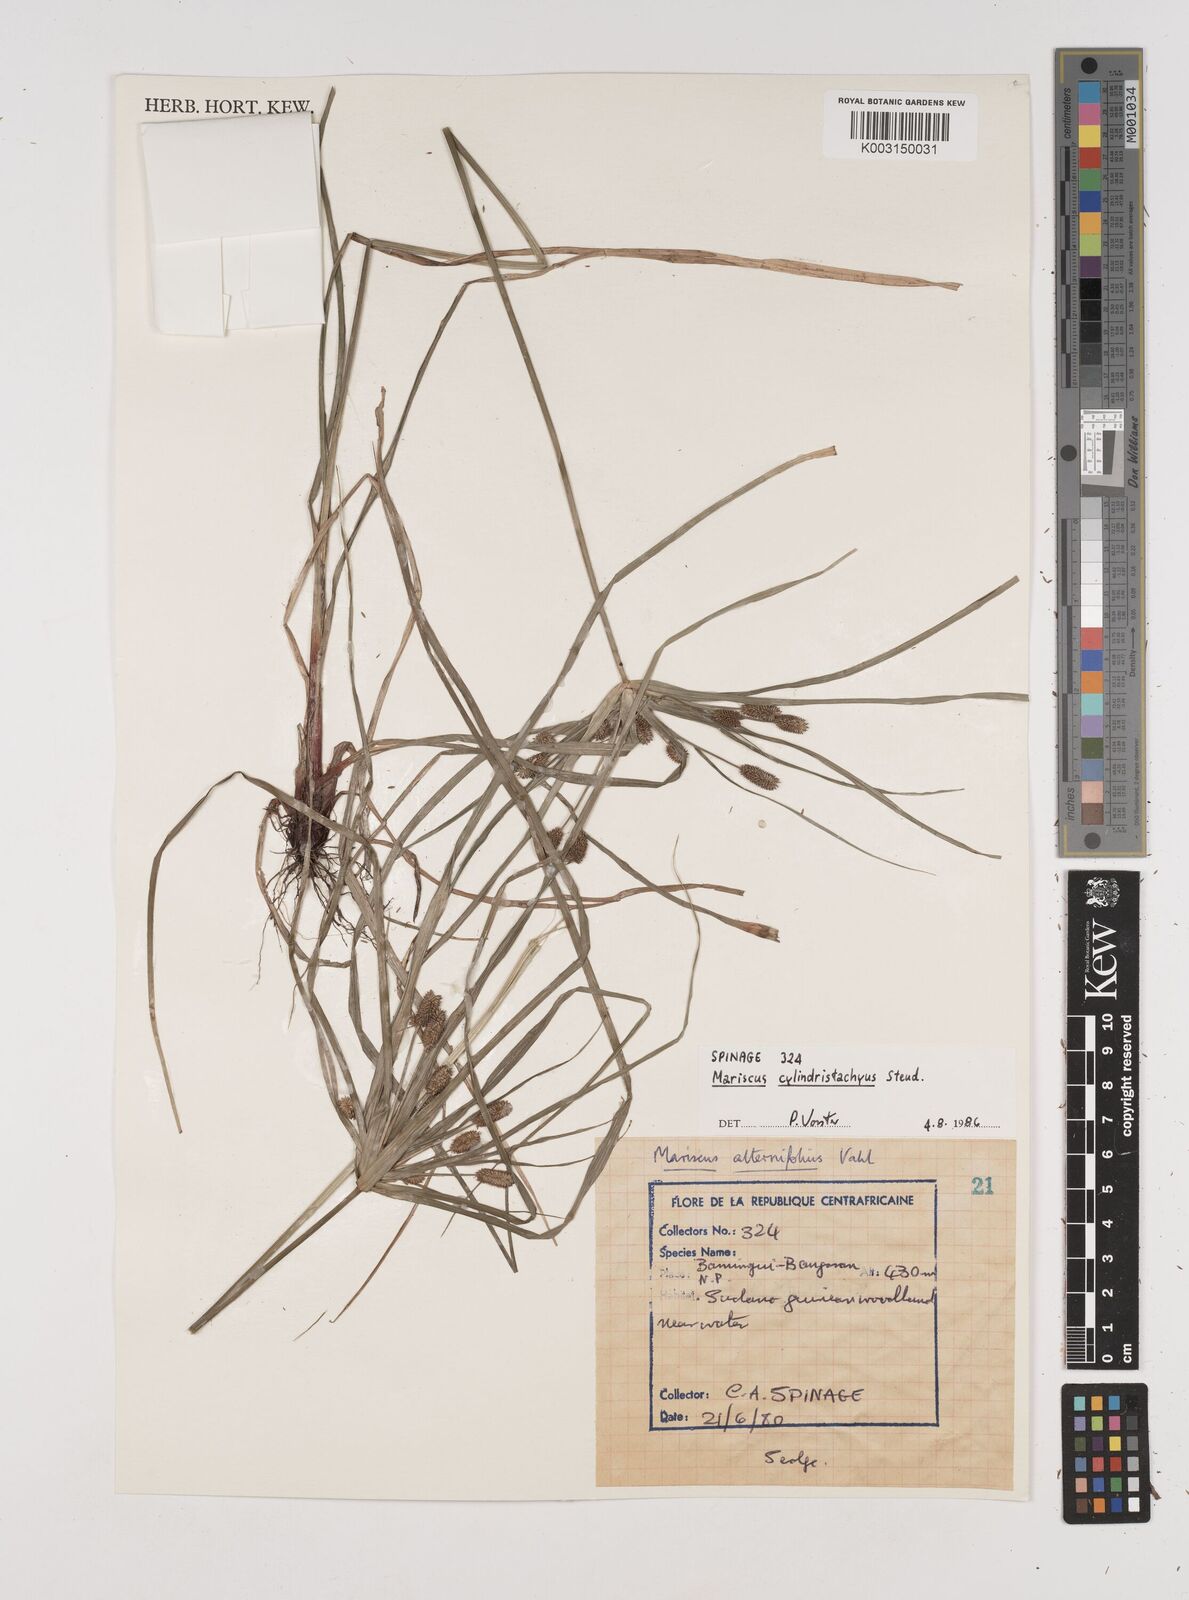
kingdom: Plantae
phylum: Tracheophyta
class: Liliopsida
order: Poales
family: Cyperaceae
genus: Cyperus
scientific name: Cyperus cyperoides
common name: Pacific island flat sedge
